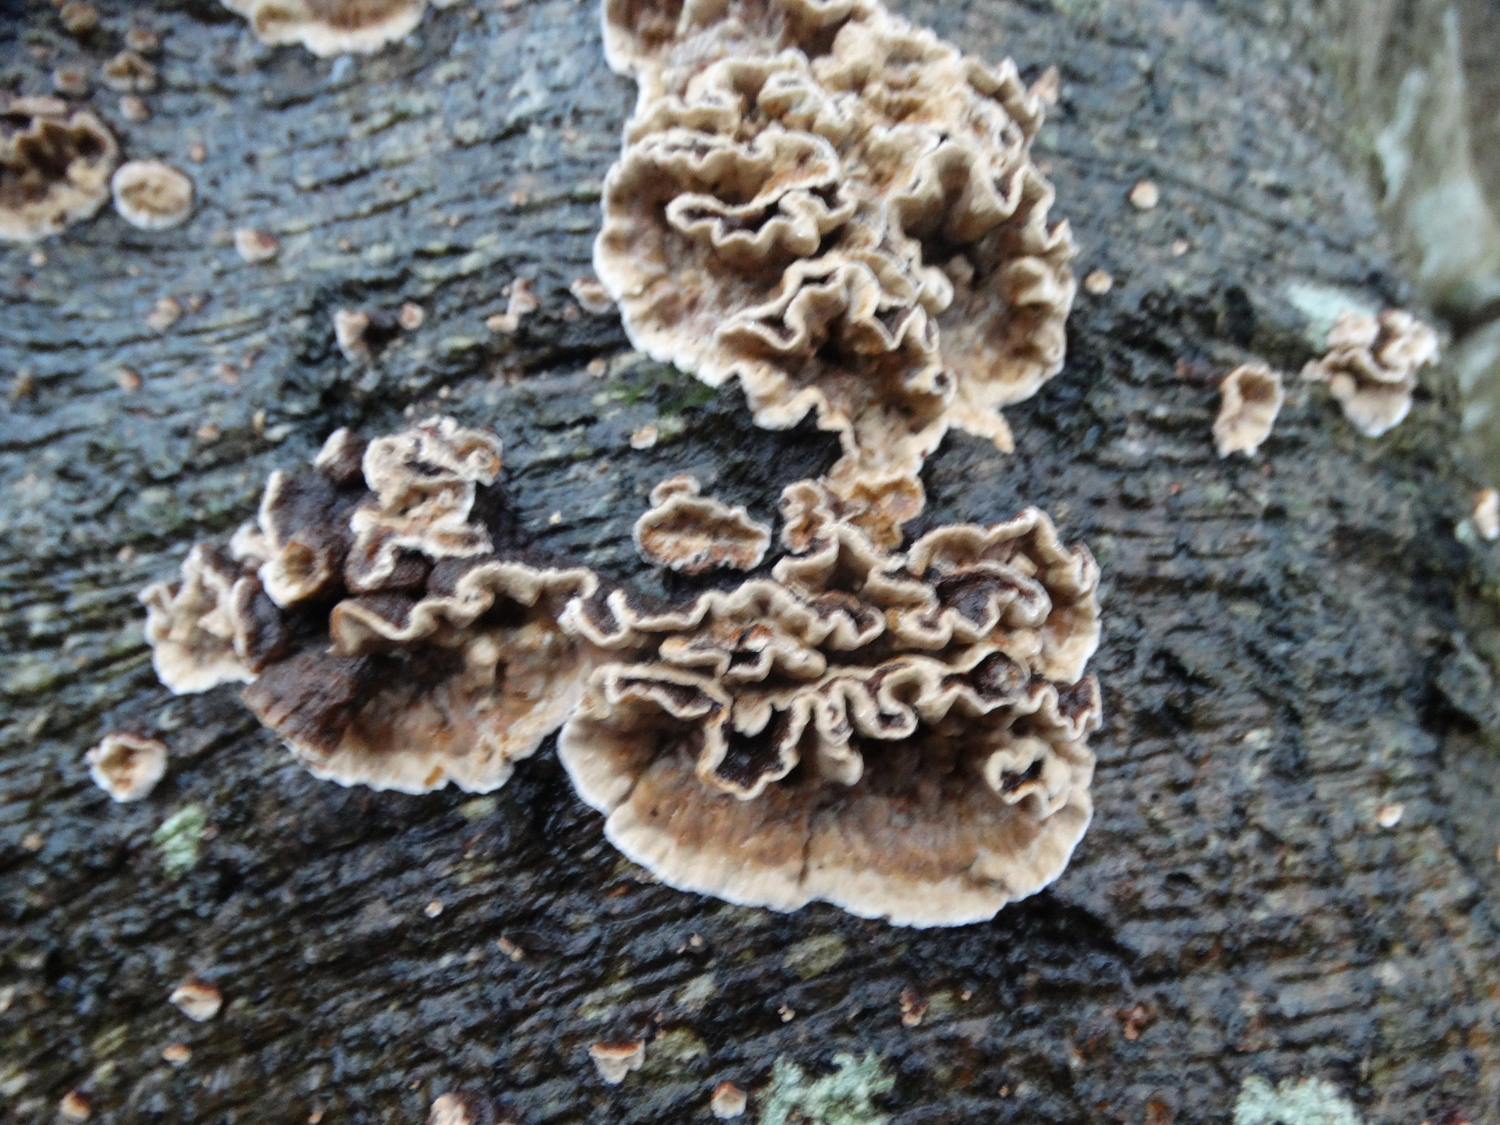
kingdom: Fungi
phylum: Basidiomycota
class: Agaricomycetes
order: Russulales
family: Hericiaceae
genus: Laxitextum
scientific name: Laxitextum bicolor
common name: tvefarvet filtskind
